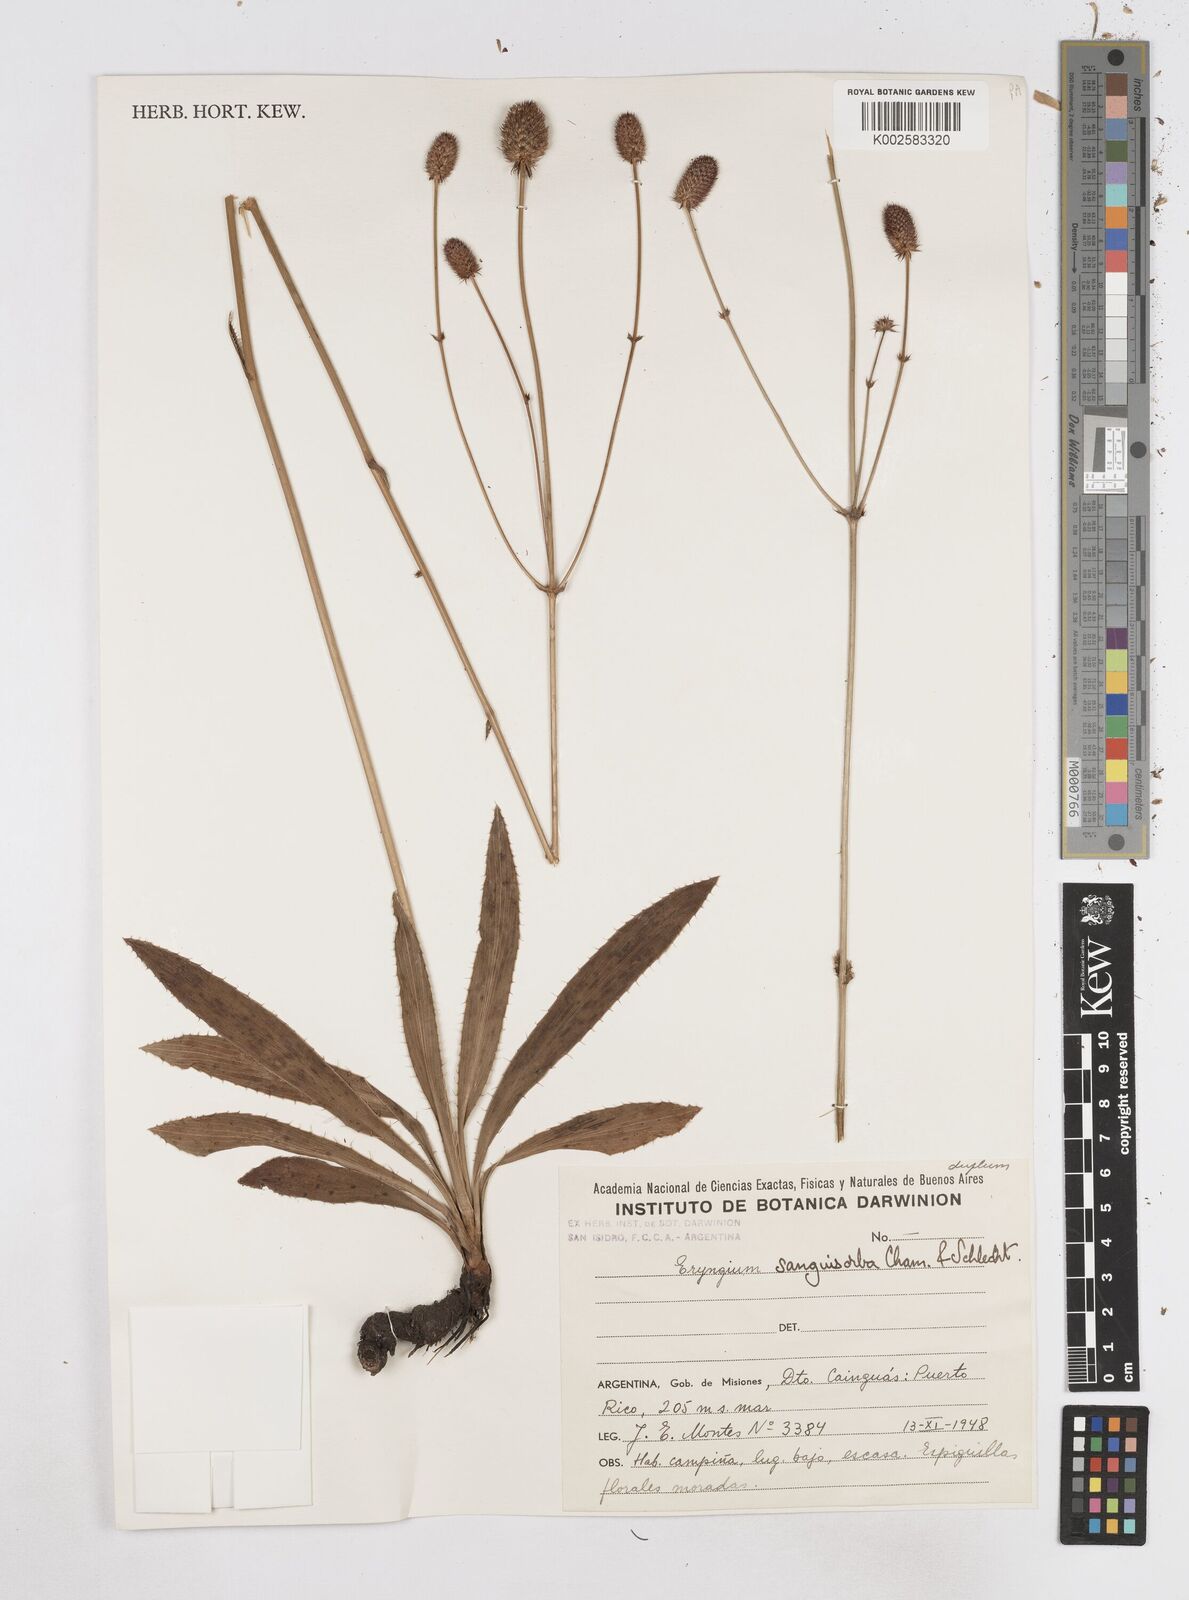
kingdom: Plantae
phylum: Tracheophyta
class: Magnoliopsida
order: Apiales
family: Apiaceae
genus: Eryngium
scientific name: Eryngium sanguisorba
